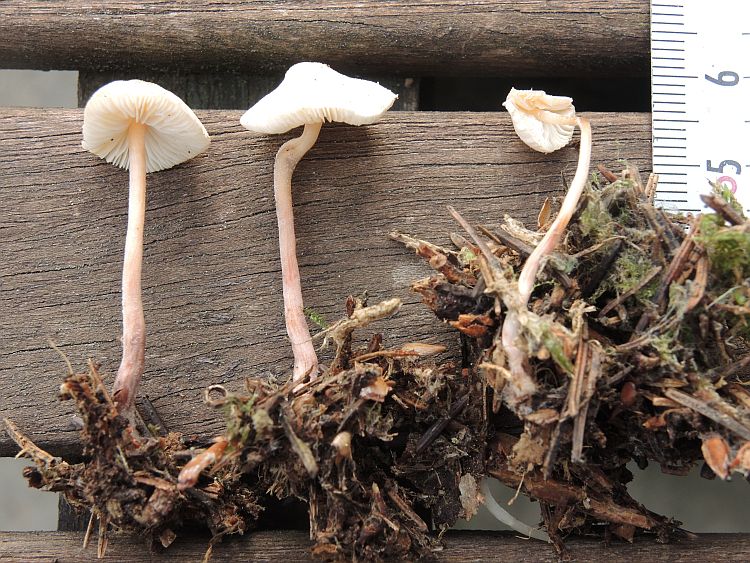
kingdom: Fungi
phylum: Basidiomycota
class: Agaricomycetes
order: Agaricales
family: Agaricaceae
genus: Cystolepiota
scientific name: Cystolepiota seminuda
